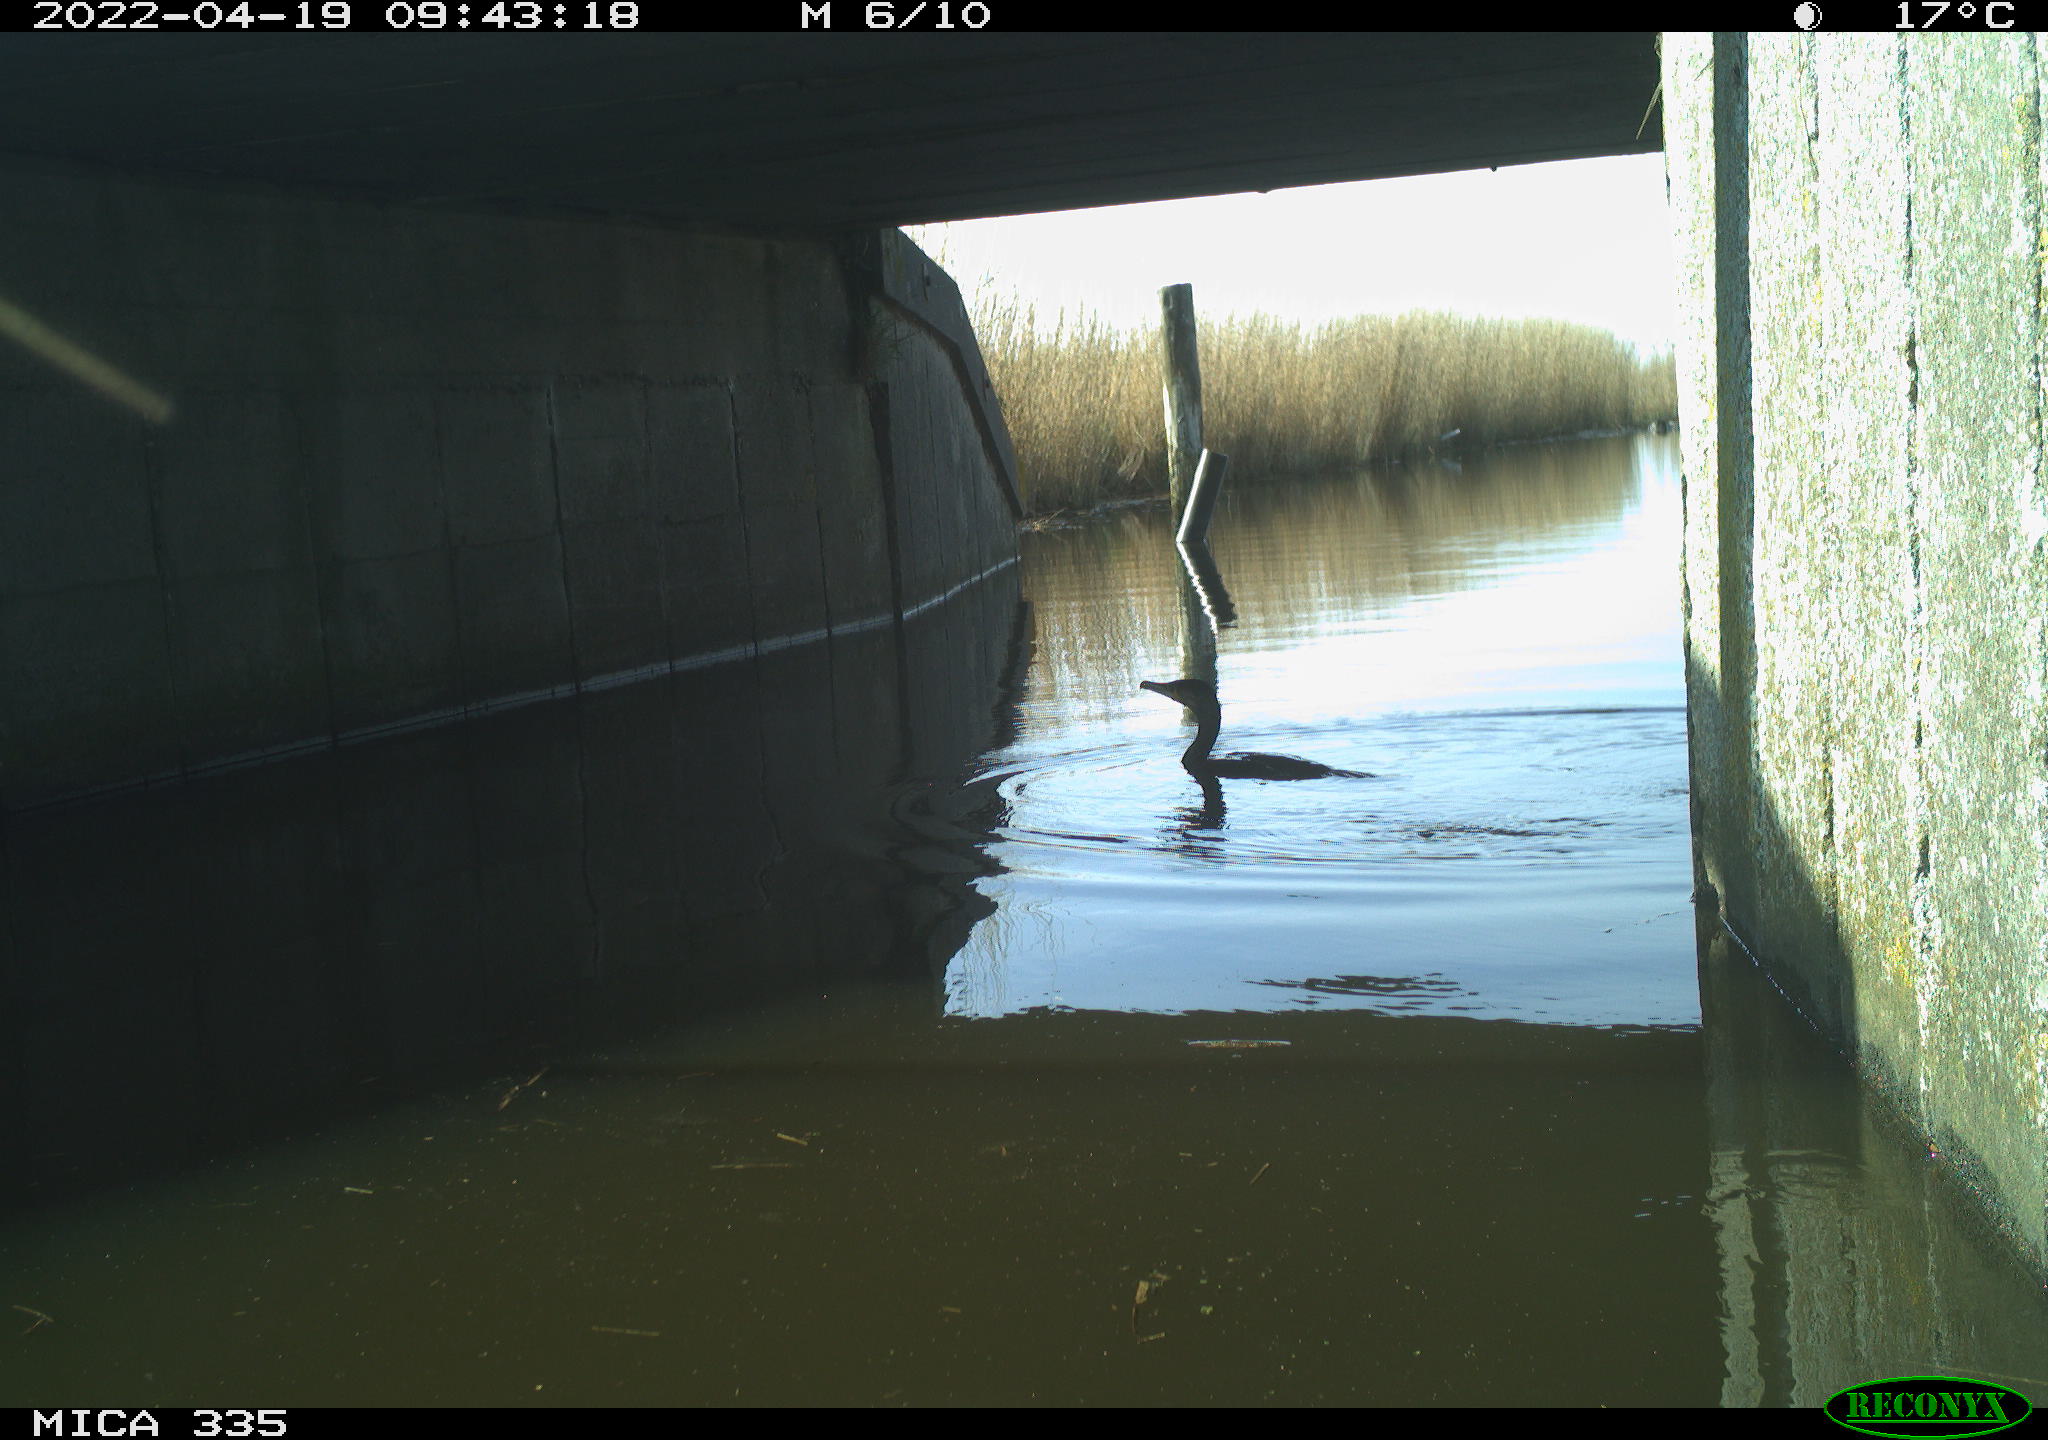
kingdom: Animalia
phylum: Chordata
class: Aves
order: Suliformes
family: Phalacrocoracidae
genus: Phalacrocorax
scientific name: Phalacrocorax carbo
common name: Great cormorant
